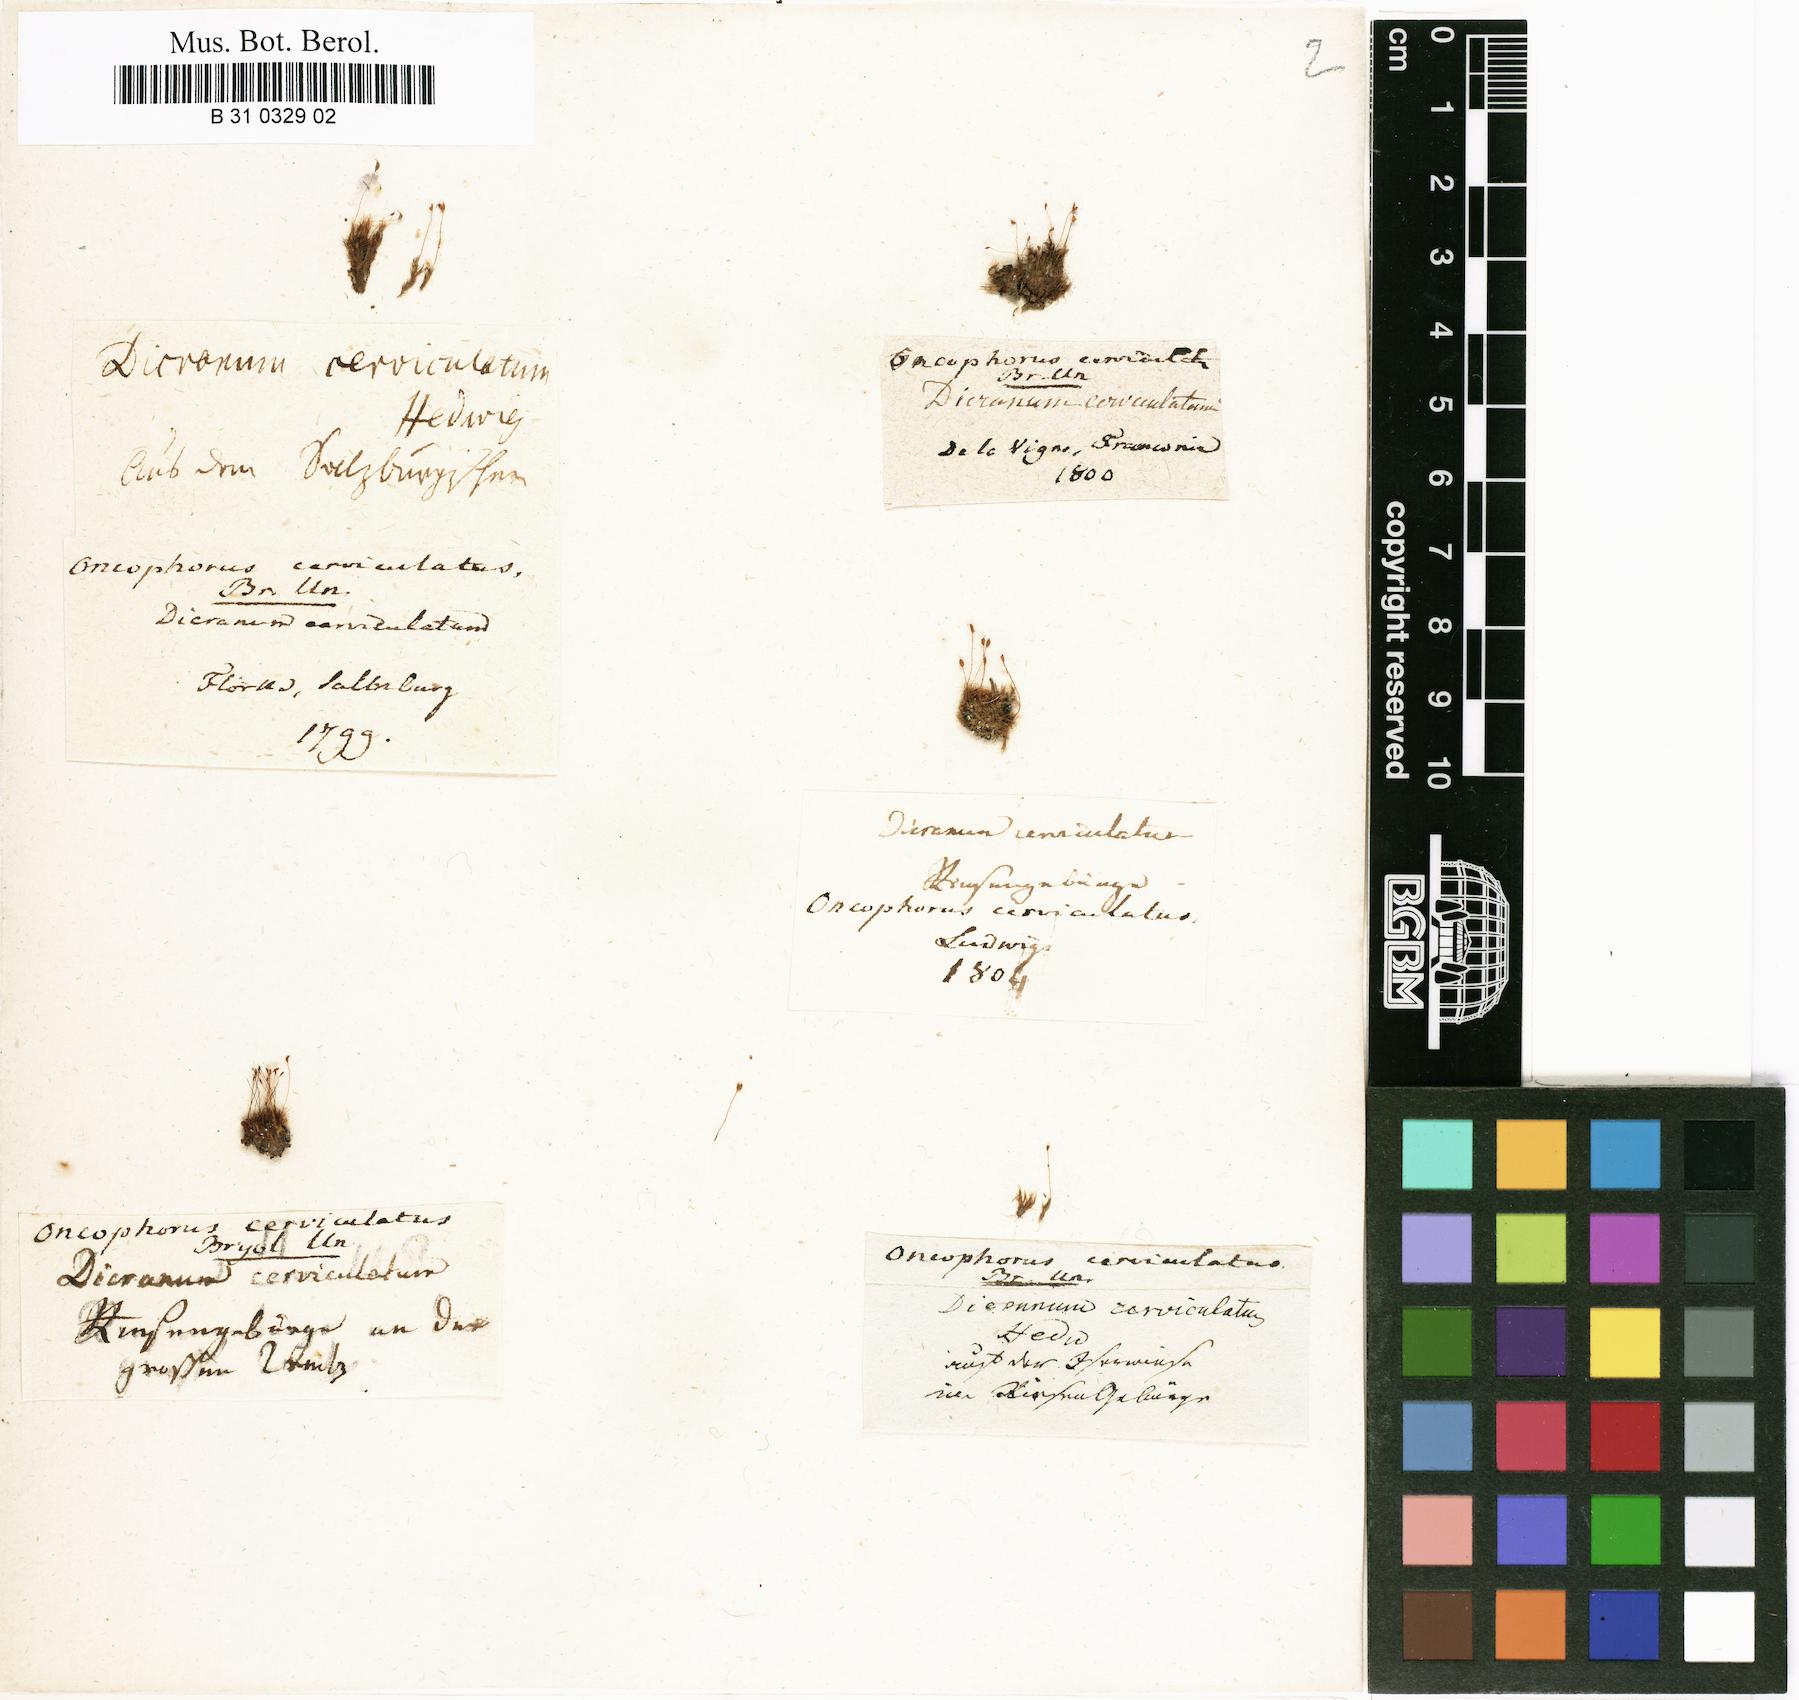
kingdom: Plantae
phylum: Bryophyta
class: Bryopsida
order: Dicranales
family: Dicranellaceae
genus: Dicranella
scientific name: Dicranella cerviculata
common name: Spur-necked forklet moss
